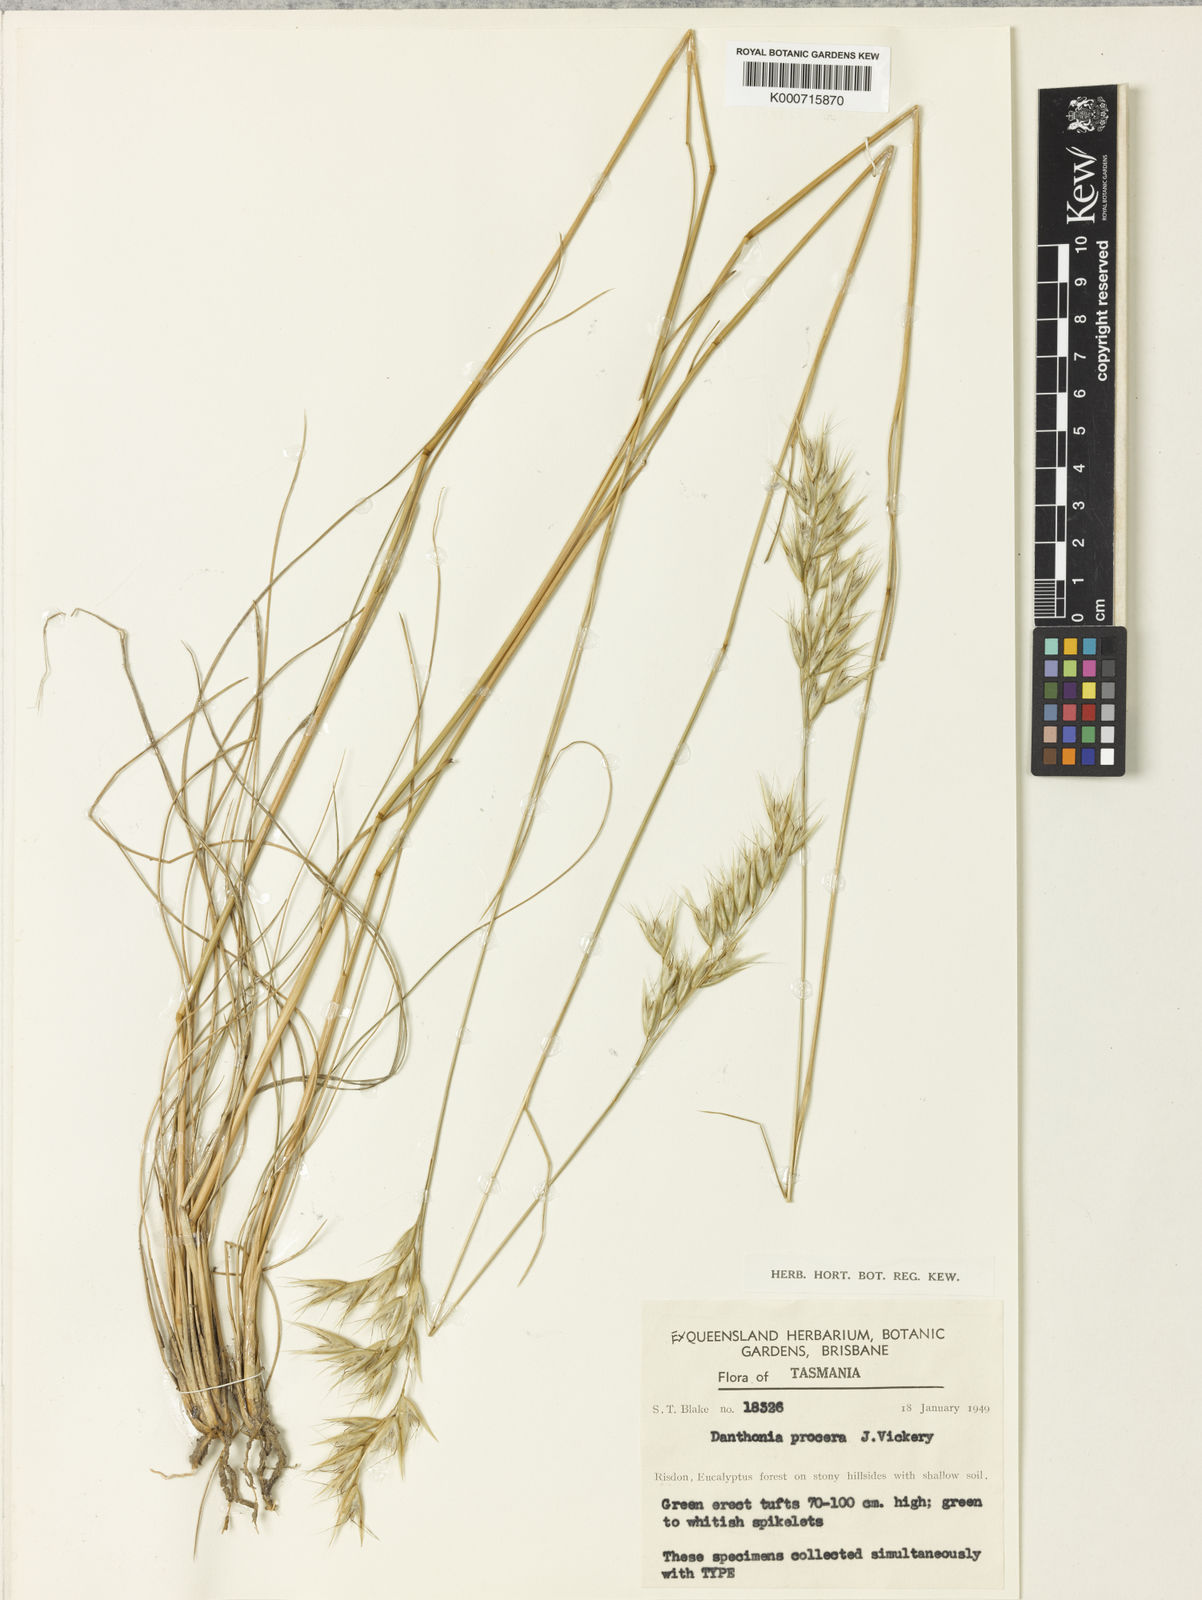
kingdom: Plantae
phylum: Tracheophyta
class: Liliopsida
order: Poales
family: Poaceae
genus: Rytidosperma
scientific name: Rytidosperma indutum
